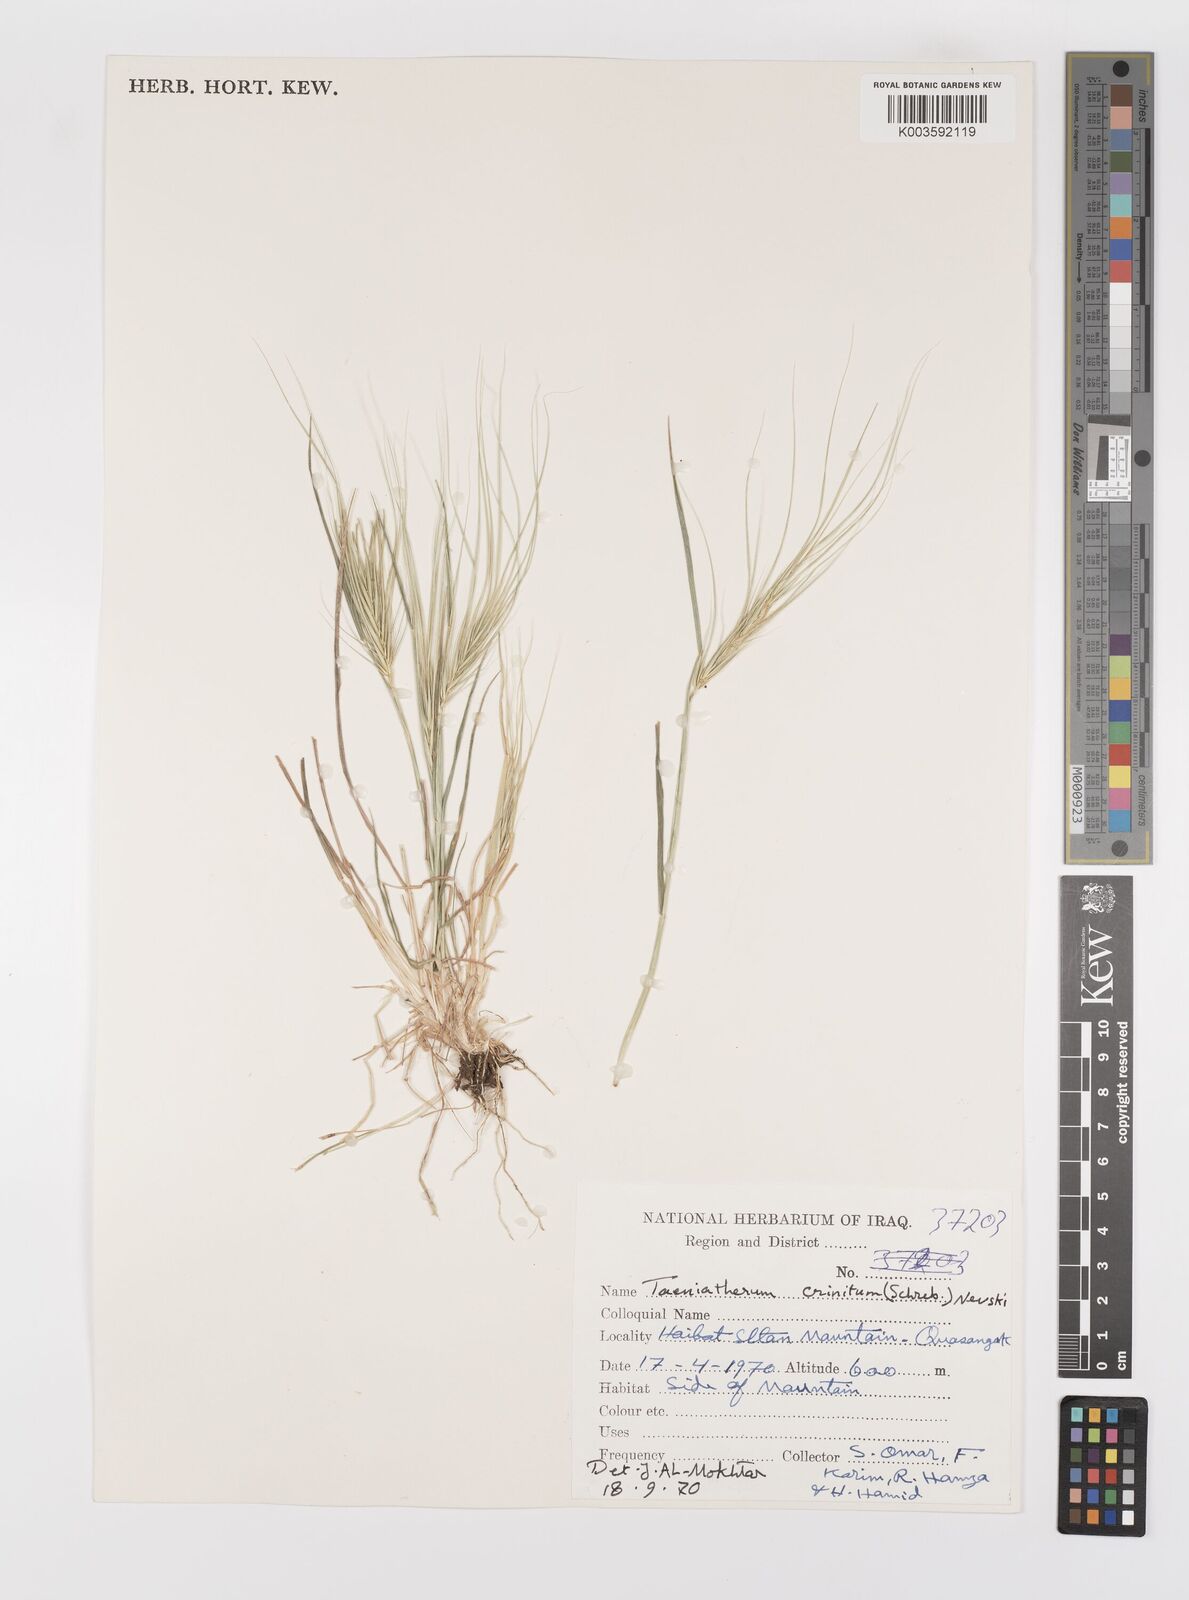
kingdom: Plantae
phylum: Tracheophyta
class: Liliopsida
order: Poales
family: Poaceae
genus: Taeniatherum
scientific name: Taeniatherum caput-medusae
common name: Medusahead
